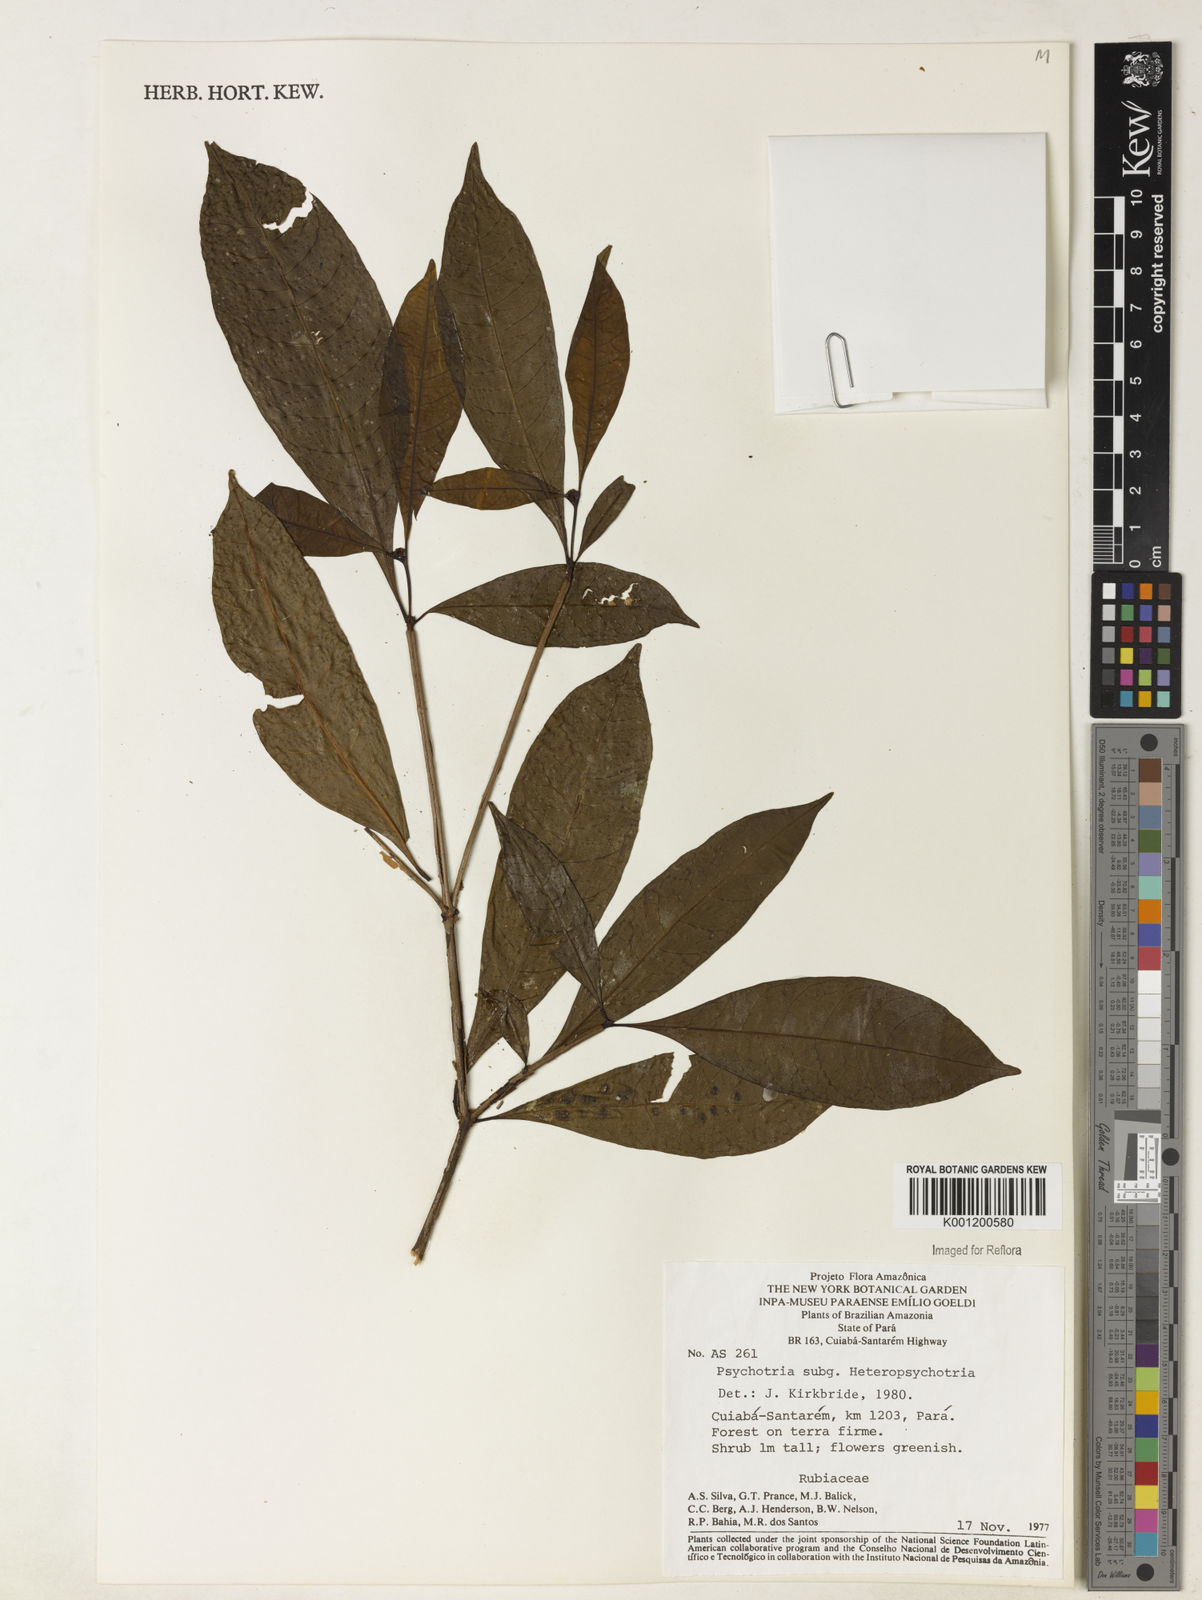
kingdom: Plantae
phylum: Tracheophyta
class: Magnoliopsida
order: Gentianales
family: Rubiaceae
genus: Psychotria
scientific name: Psychotria
